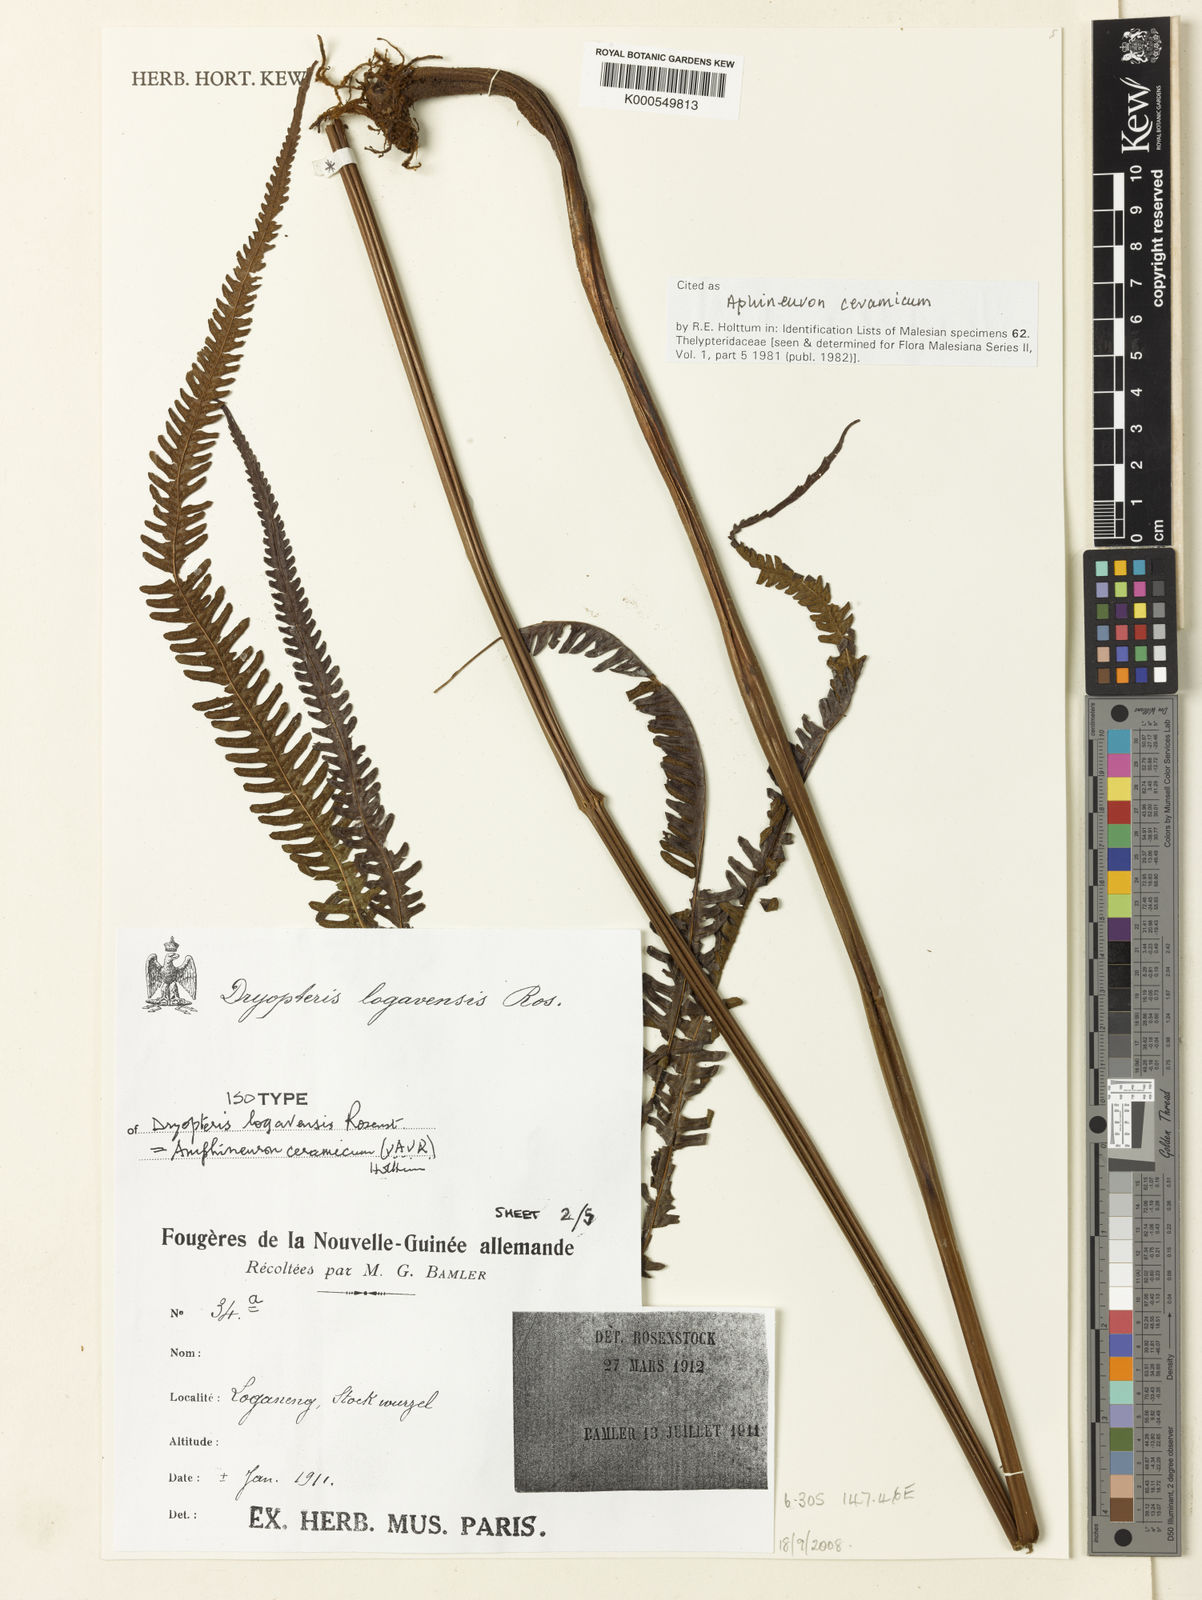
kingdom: Plantae
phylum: Tracheophyta
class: Polypodiopsida
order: Polypodiales
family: Thelypteridaceae
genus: Mesopteris
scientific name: Mesopteris ceramica
